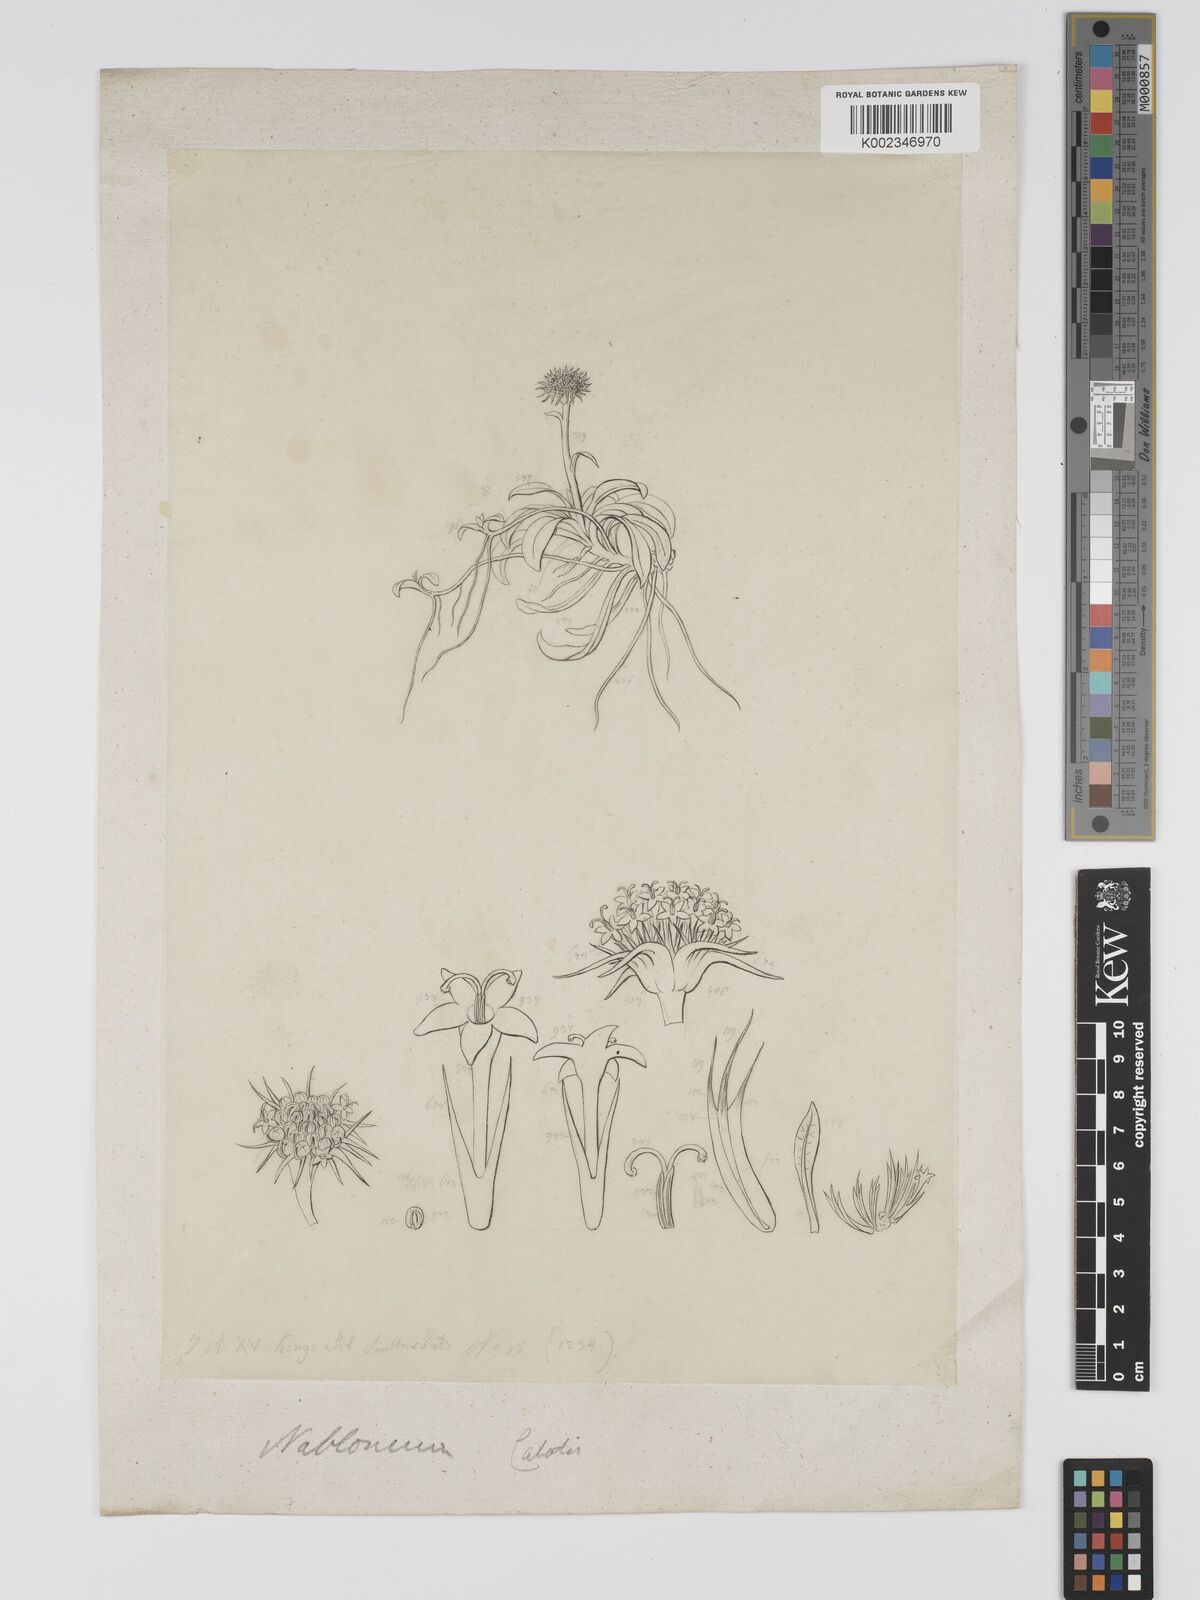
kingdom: Plantae
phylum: Tracheophyta
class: Magnoliopsida
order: Asterales
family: Asteraceae
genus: Ammobium
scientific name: Ammobium calyceroides
